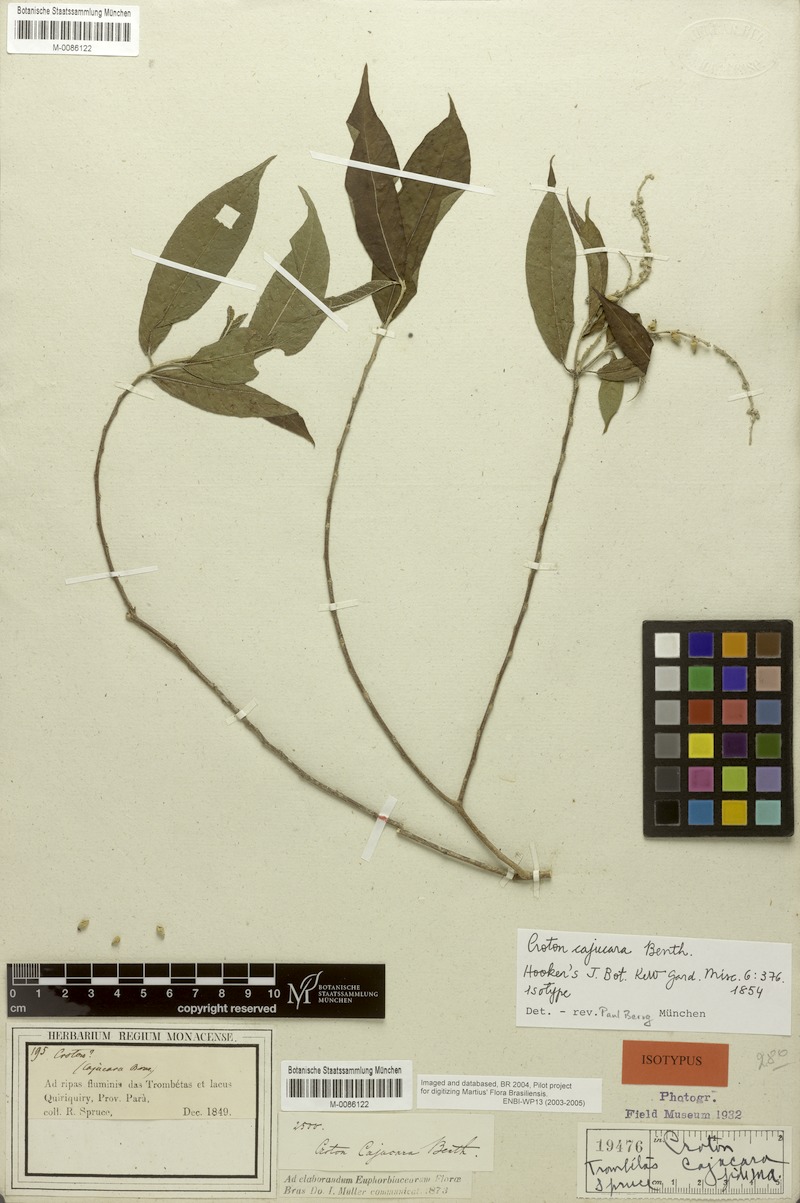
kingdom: Plantae
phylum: Tracheophyta
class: Magnoliopsida
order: Malpighiales
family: Euphorbiaceae
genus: Croton
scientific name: Croton cajucara
